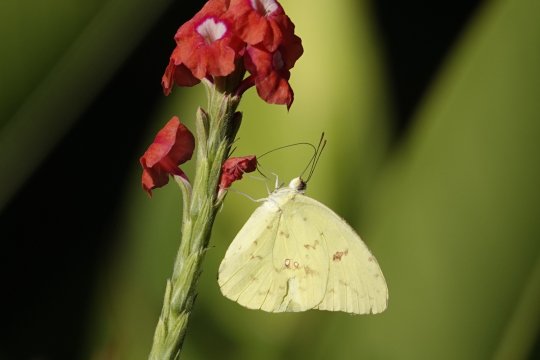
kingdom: Animalia
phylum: Arthropoda
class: Insecta
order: Lepidoptera
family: Pieridae
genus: Phoebis
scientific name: Phoebis argante
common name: Apricot Sulphur
